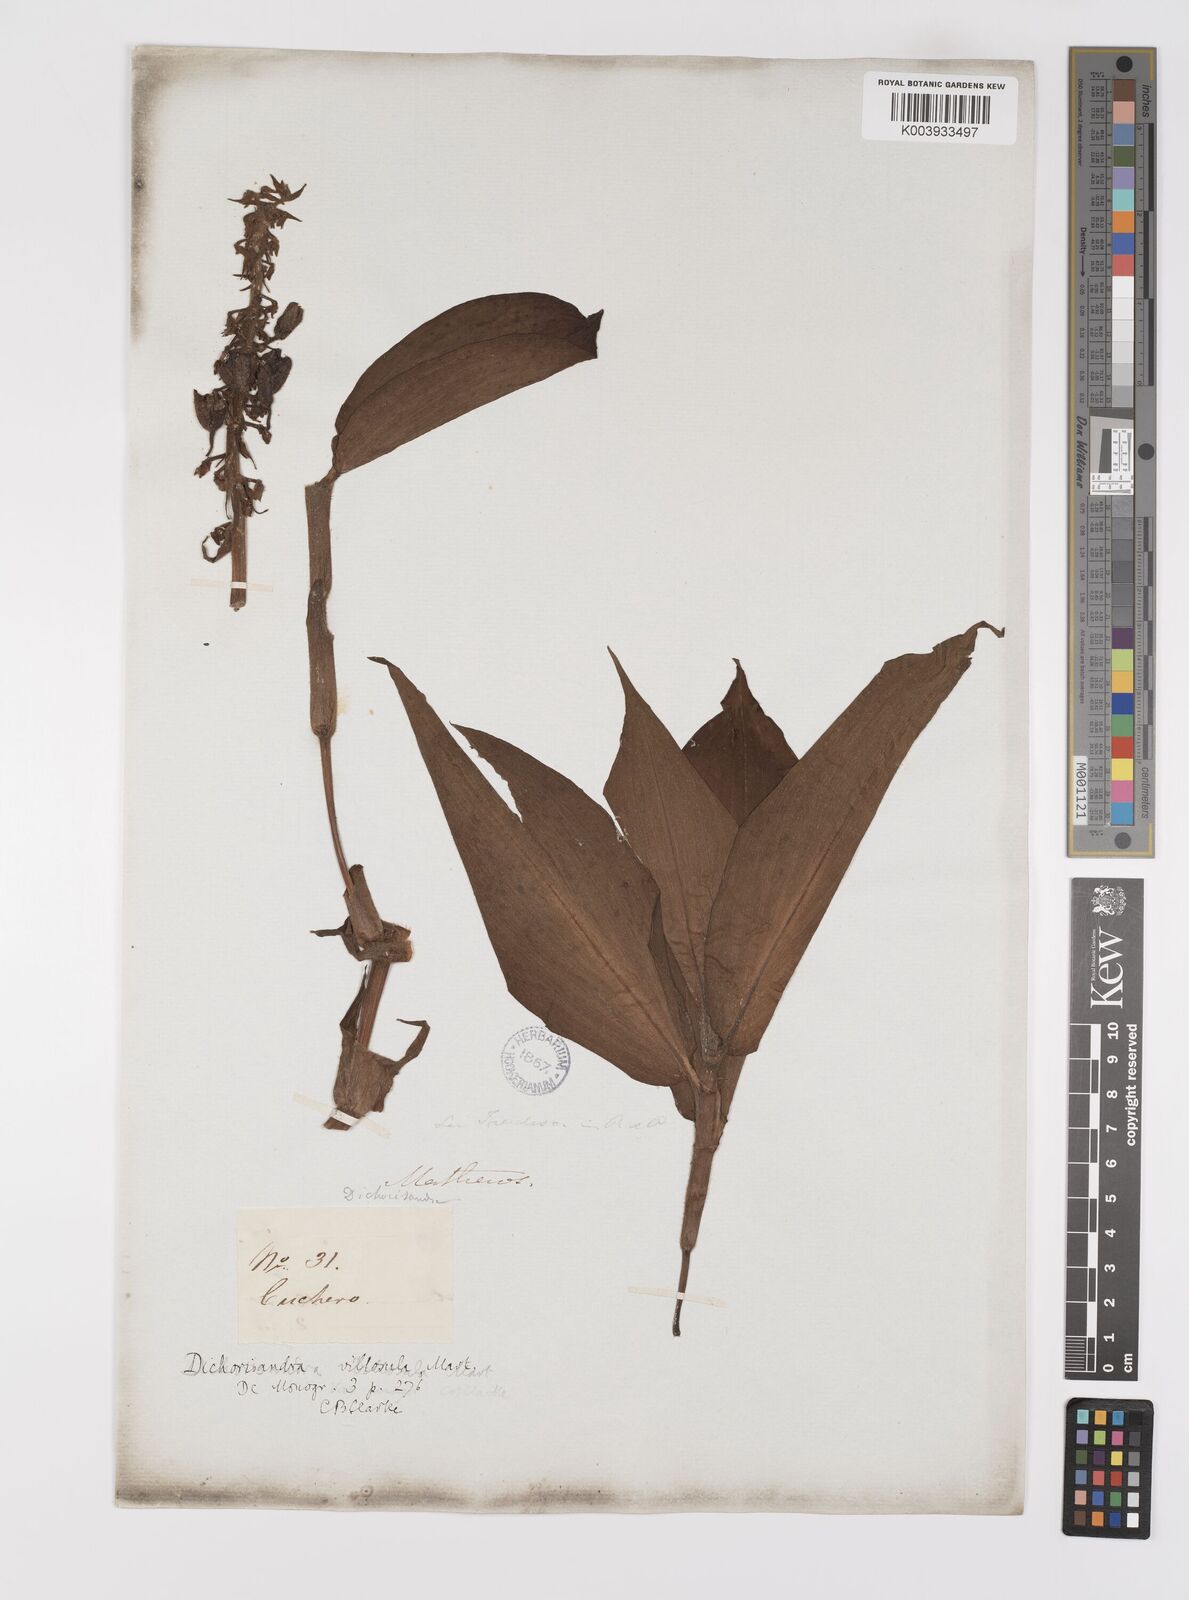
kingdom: Plantae
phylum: Tracheophyta
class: Liliopsida
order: Commelinales
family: Commelinaceae
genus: Dichorisandra
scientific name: Dichorisandra villosula
